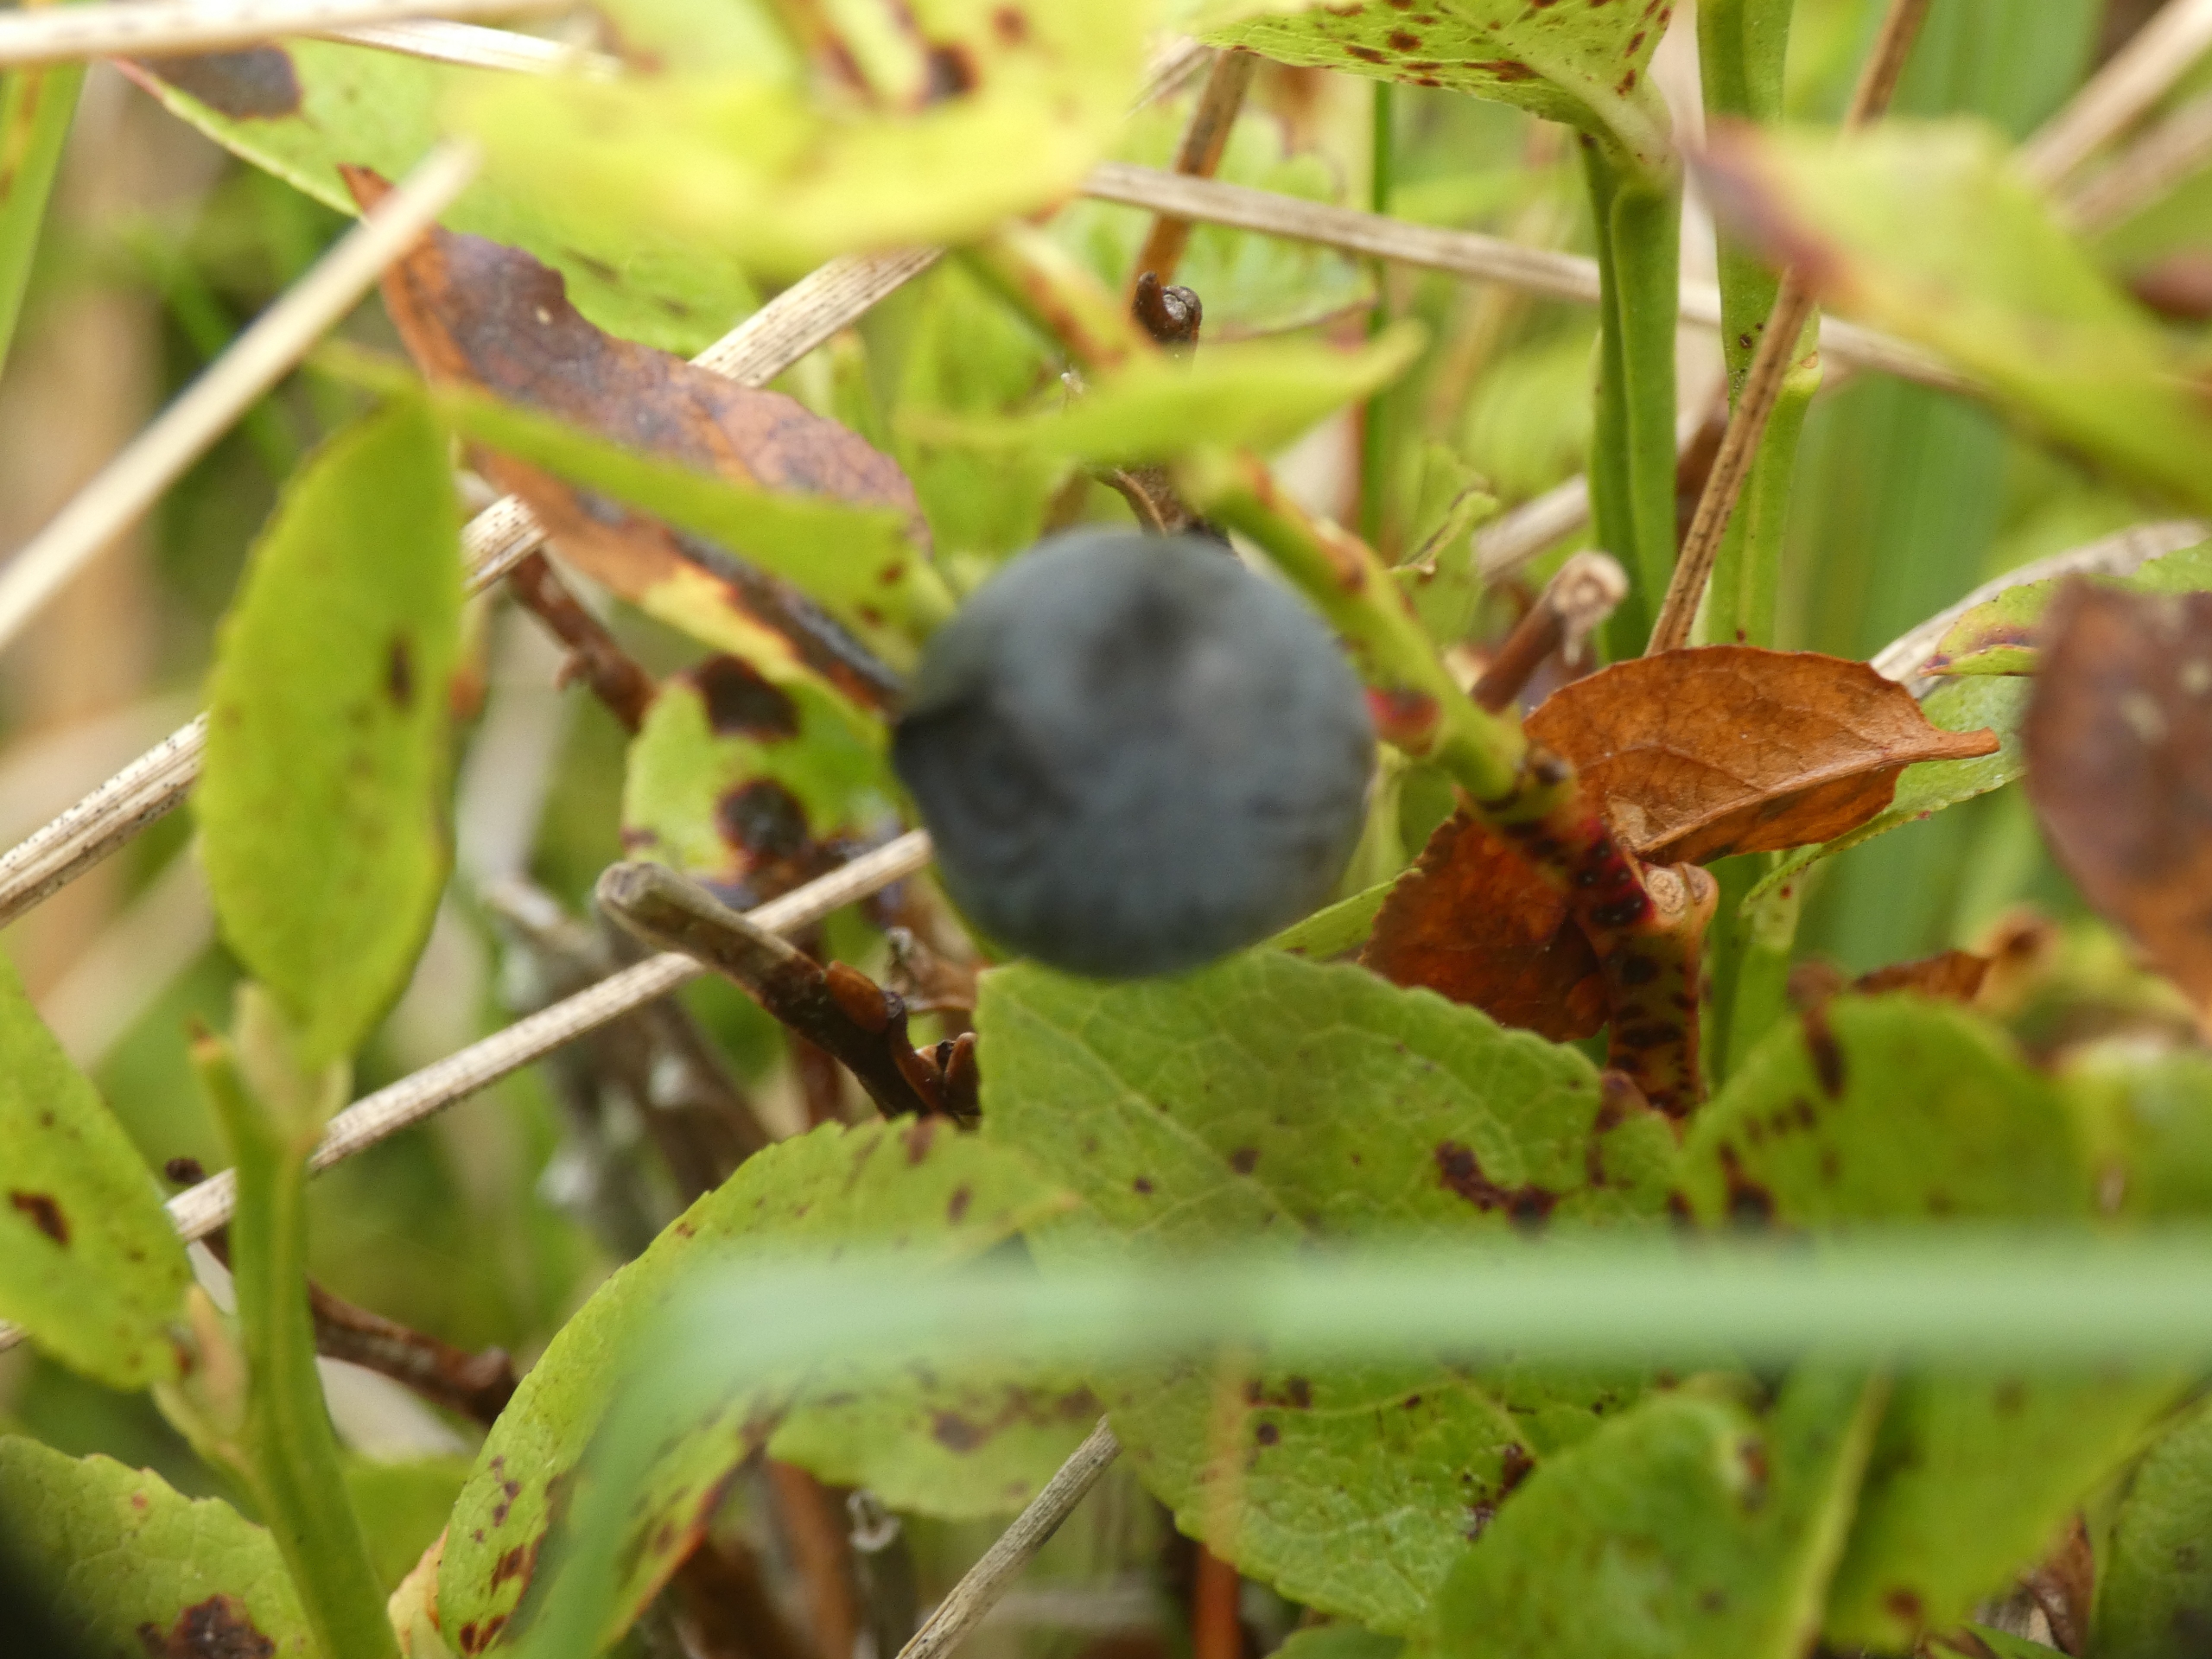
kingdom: Plantae
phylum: Tracheophyta
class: Magnoliopsida
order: Ericales
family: Ericaceae
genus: Vaccinium
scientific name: Vaccinium myrtillus
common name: Blåbær
